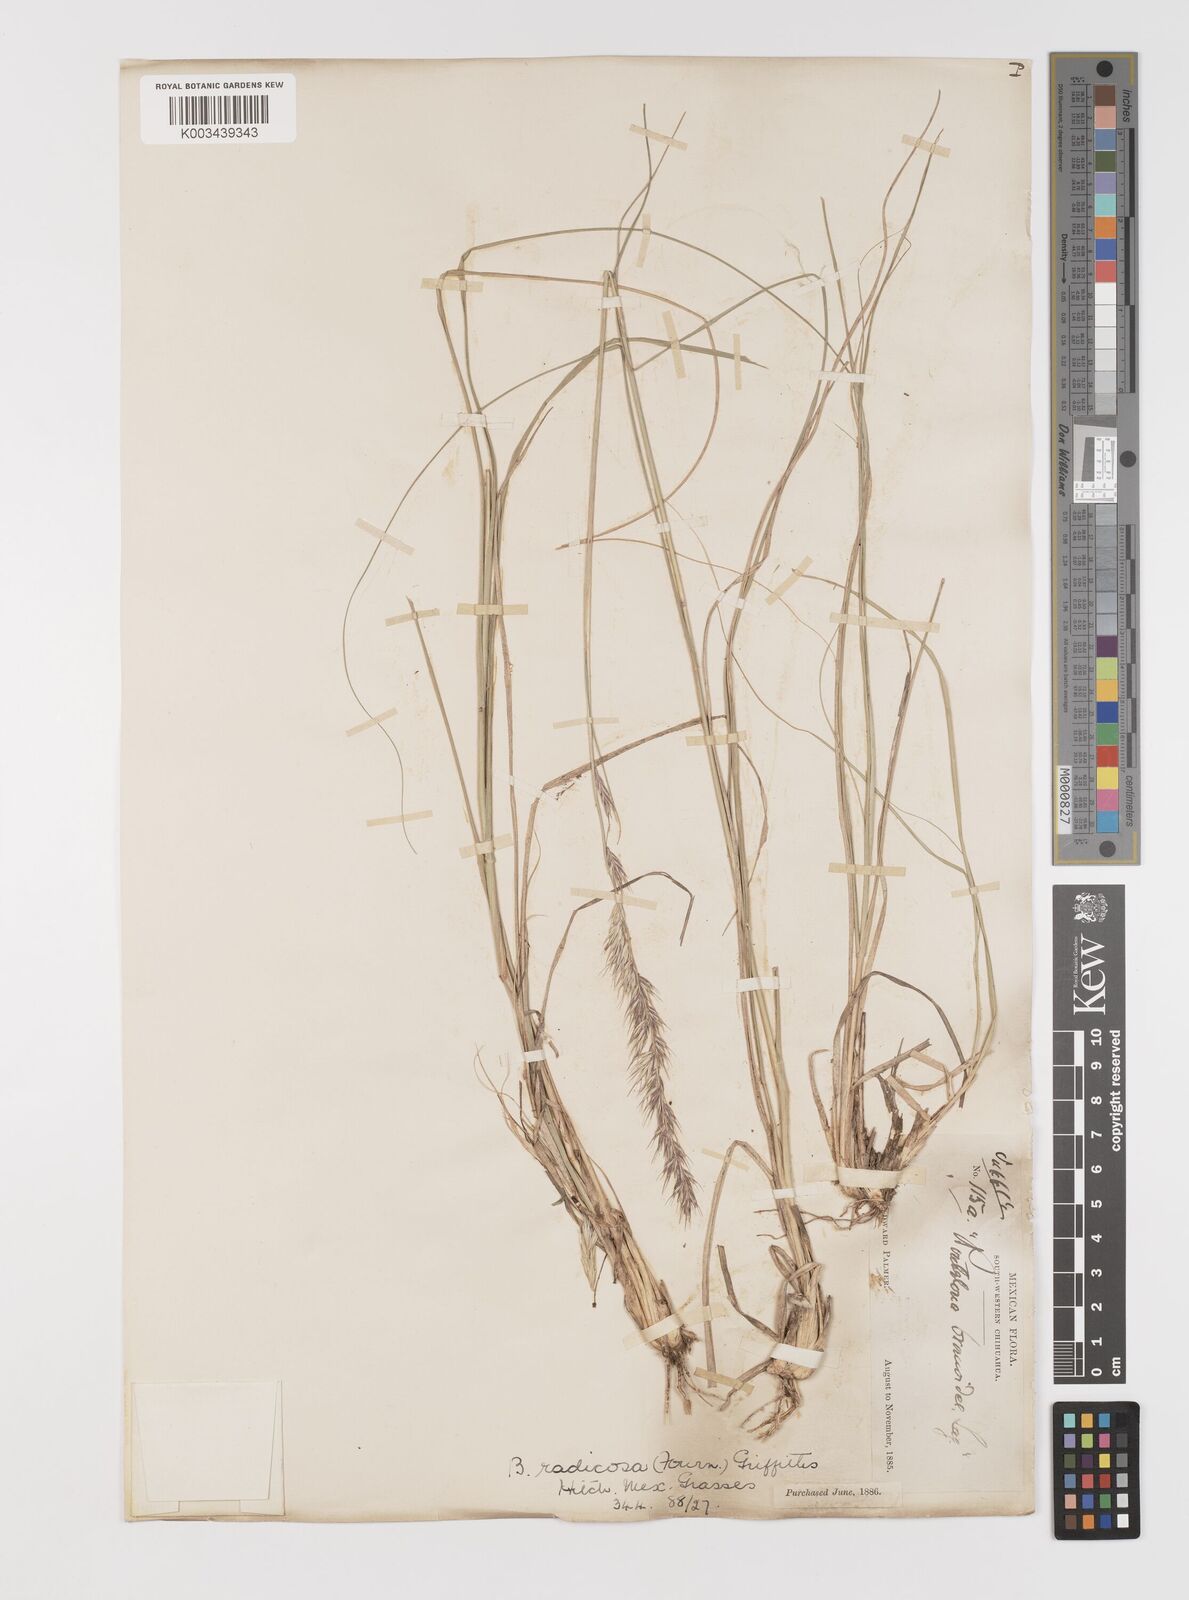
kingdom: Plantae
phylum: Tracheophyta
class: Liliopsida
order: Poales
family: Poaceae
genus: Bouteloua
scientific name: Bouteloua radicosa
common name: Purple grama
